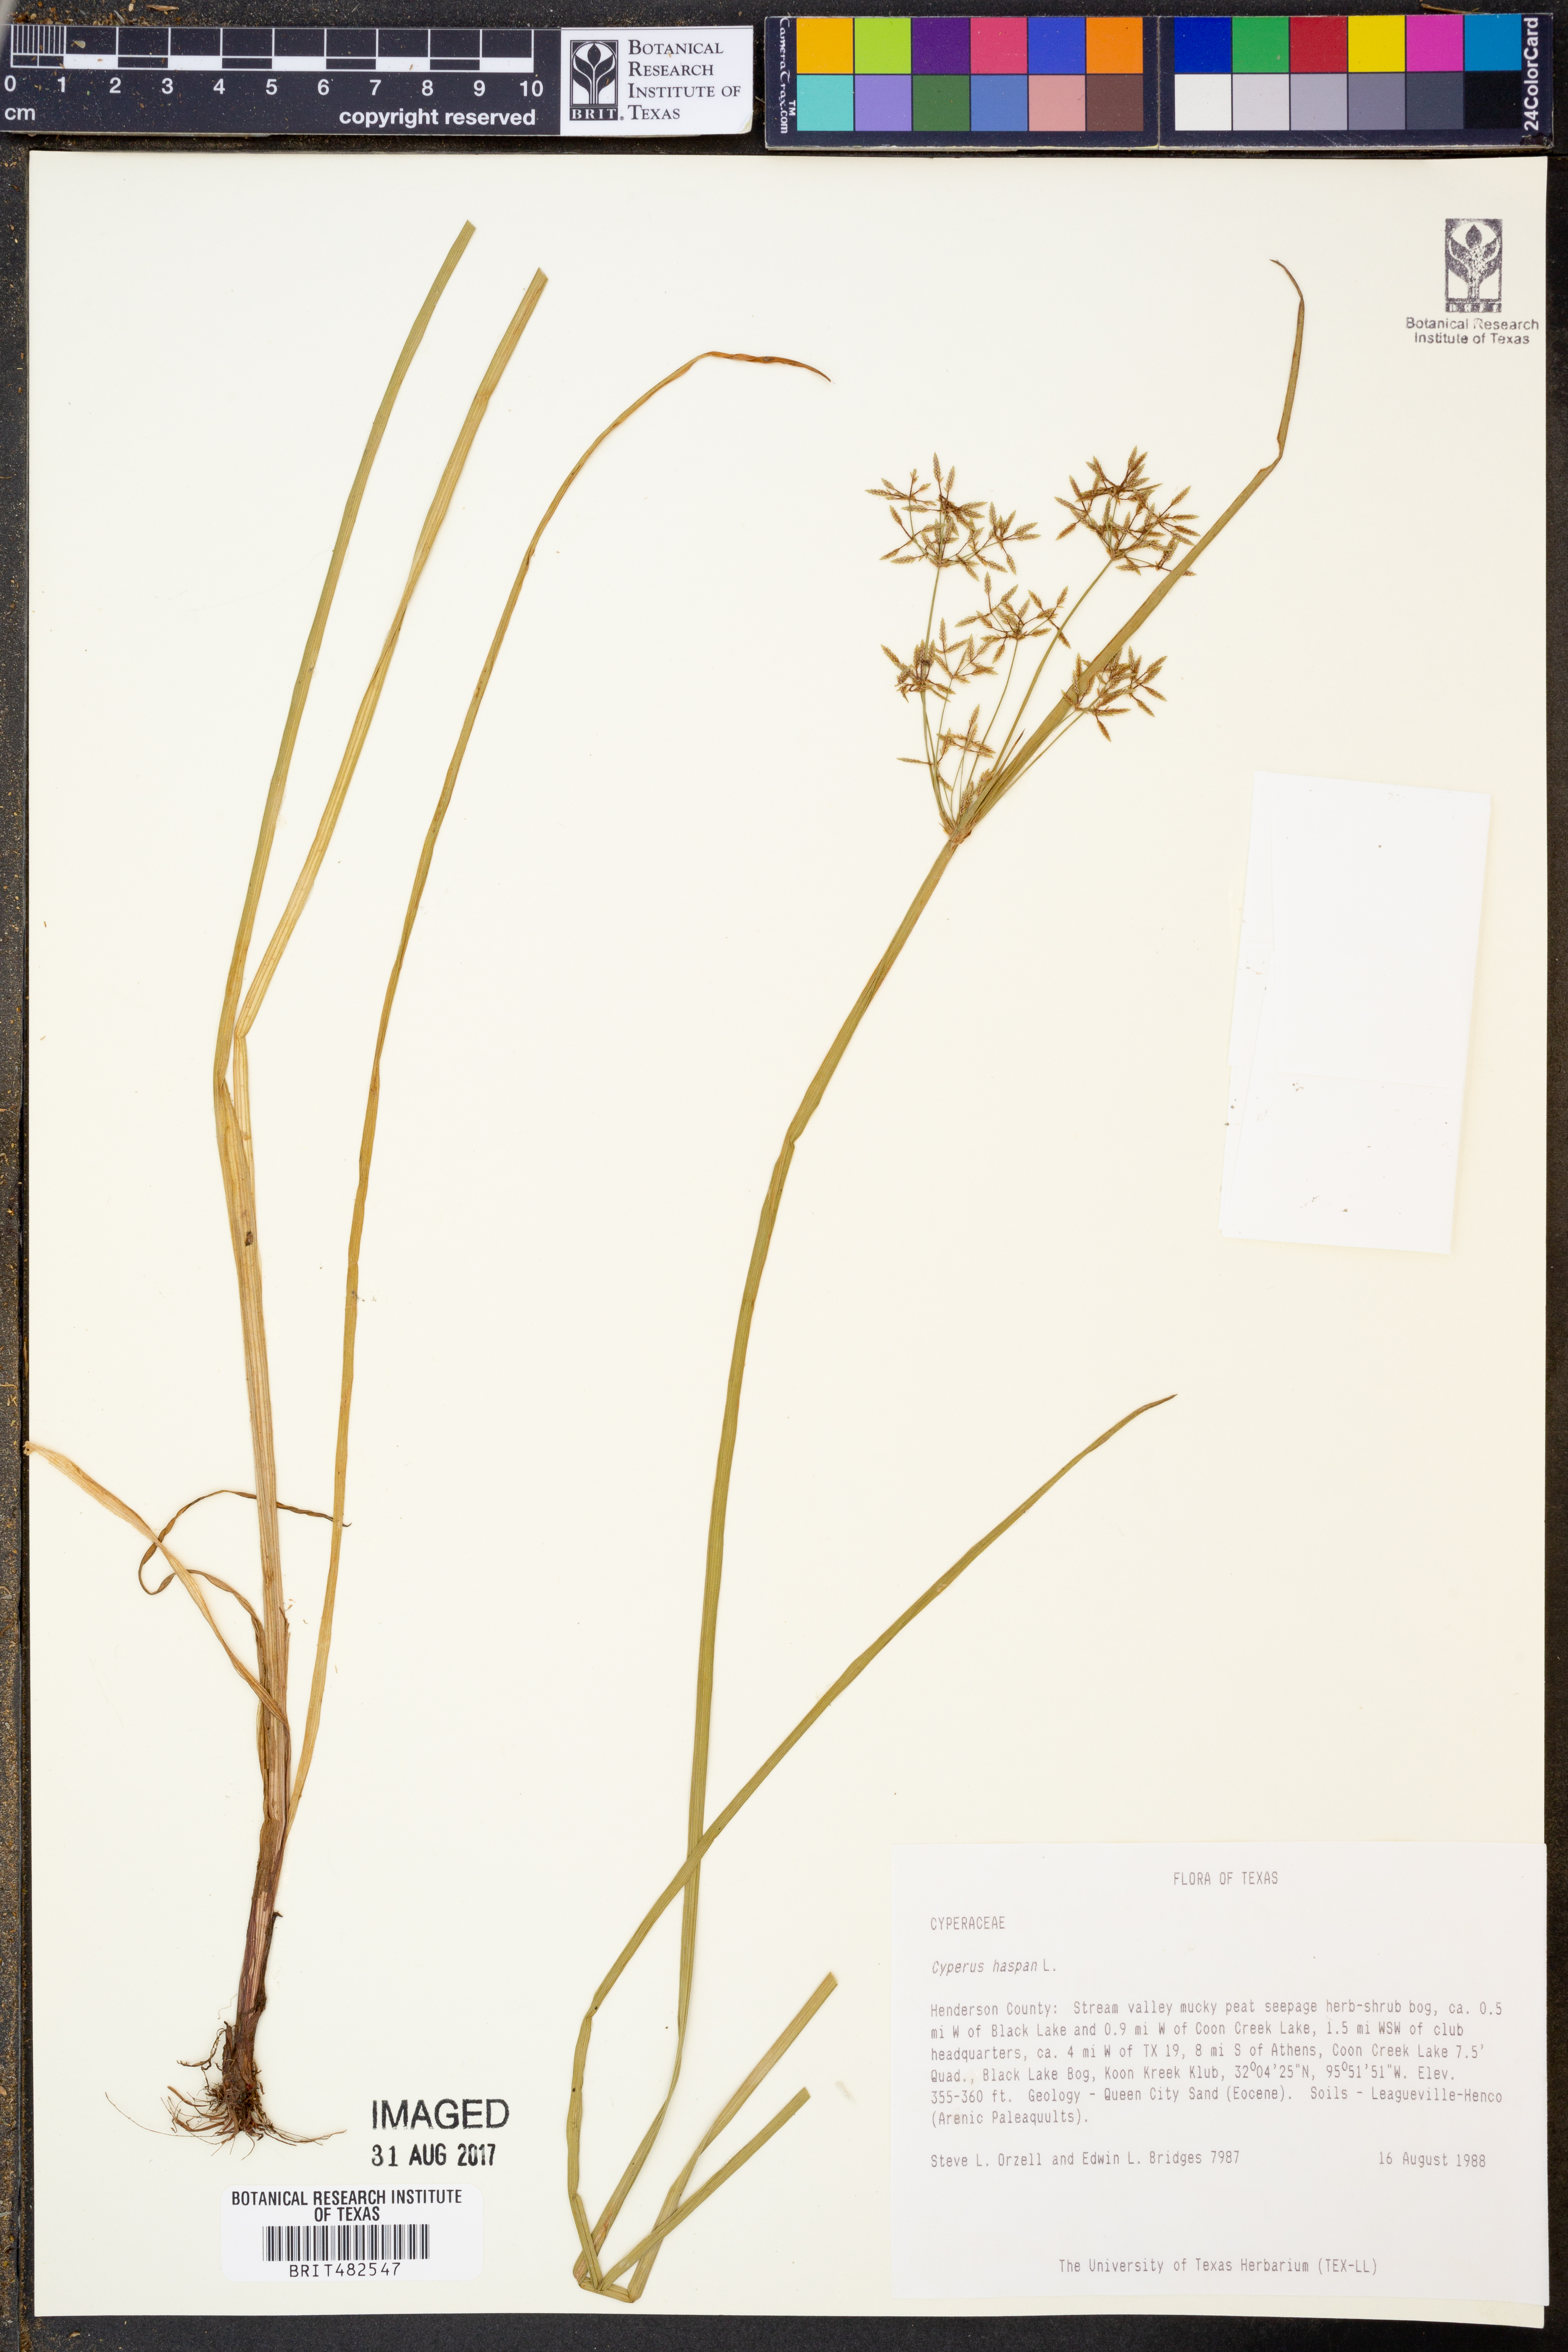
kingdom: Plantae
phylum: Tracheophyta
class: Liliopsida
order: Poales
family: Cyperaceae
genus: Cyperus
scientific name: Cyperus haspan
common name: Haspan flatsedge
